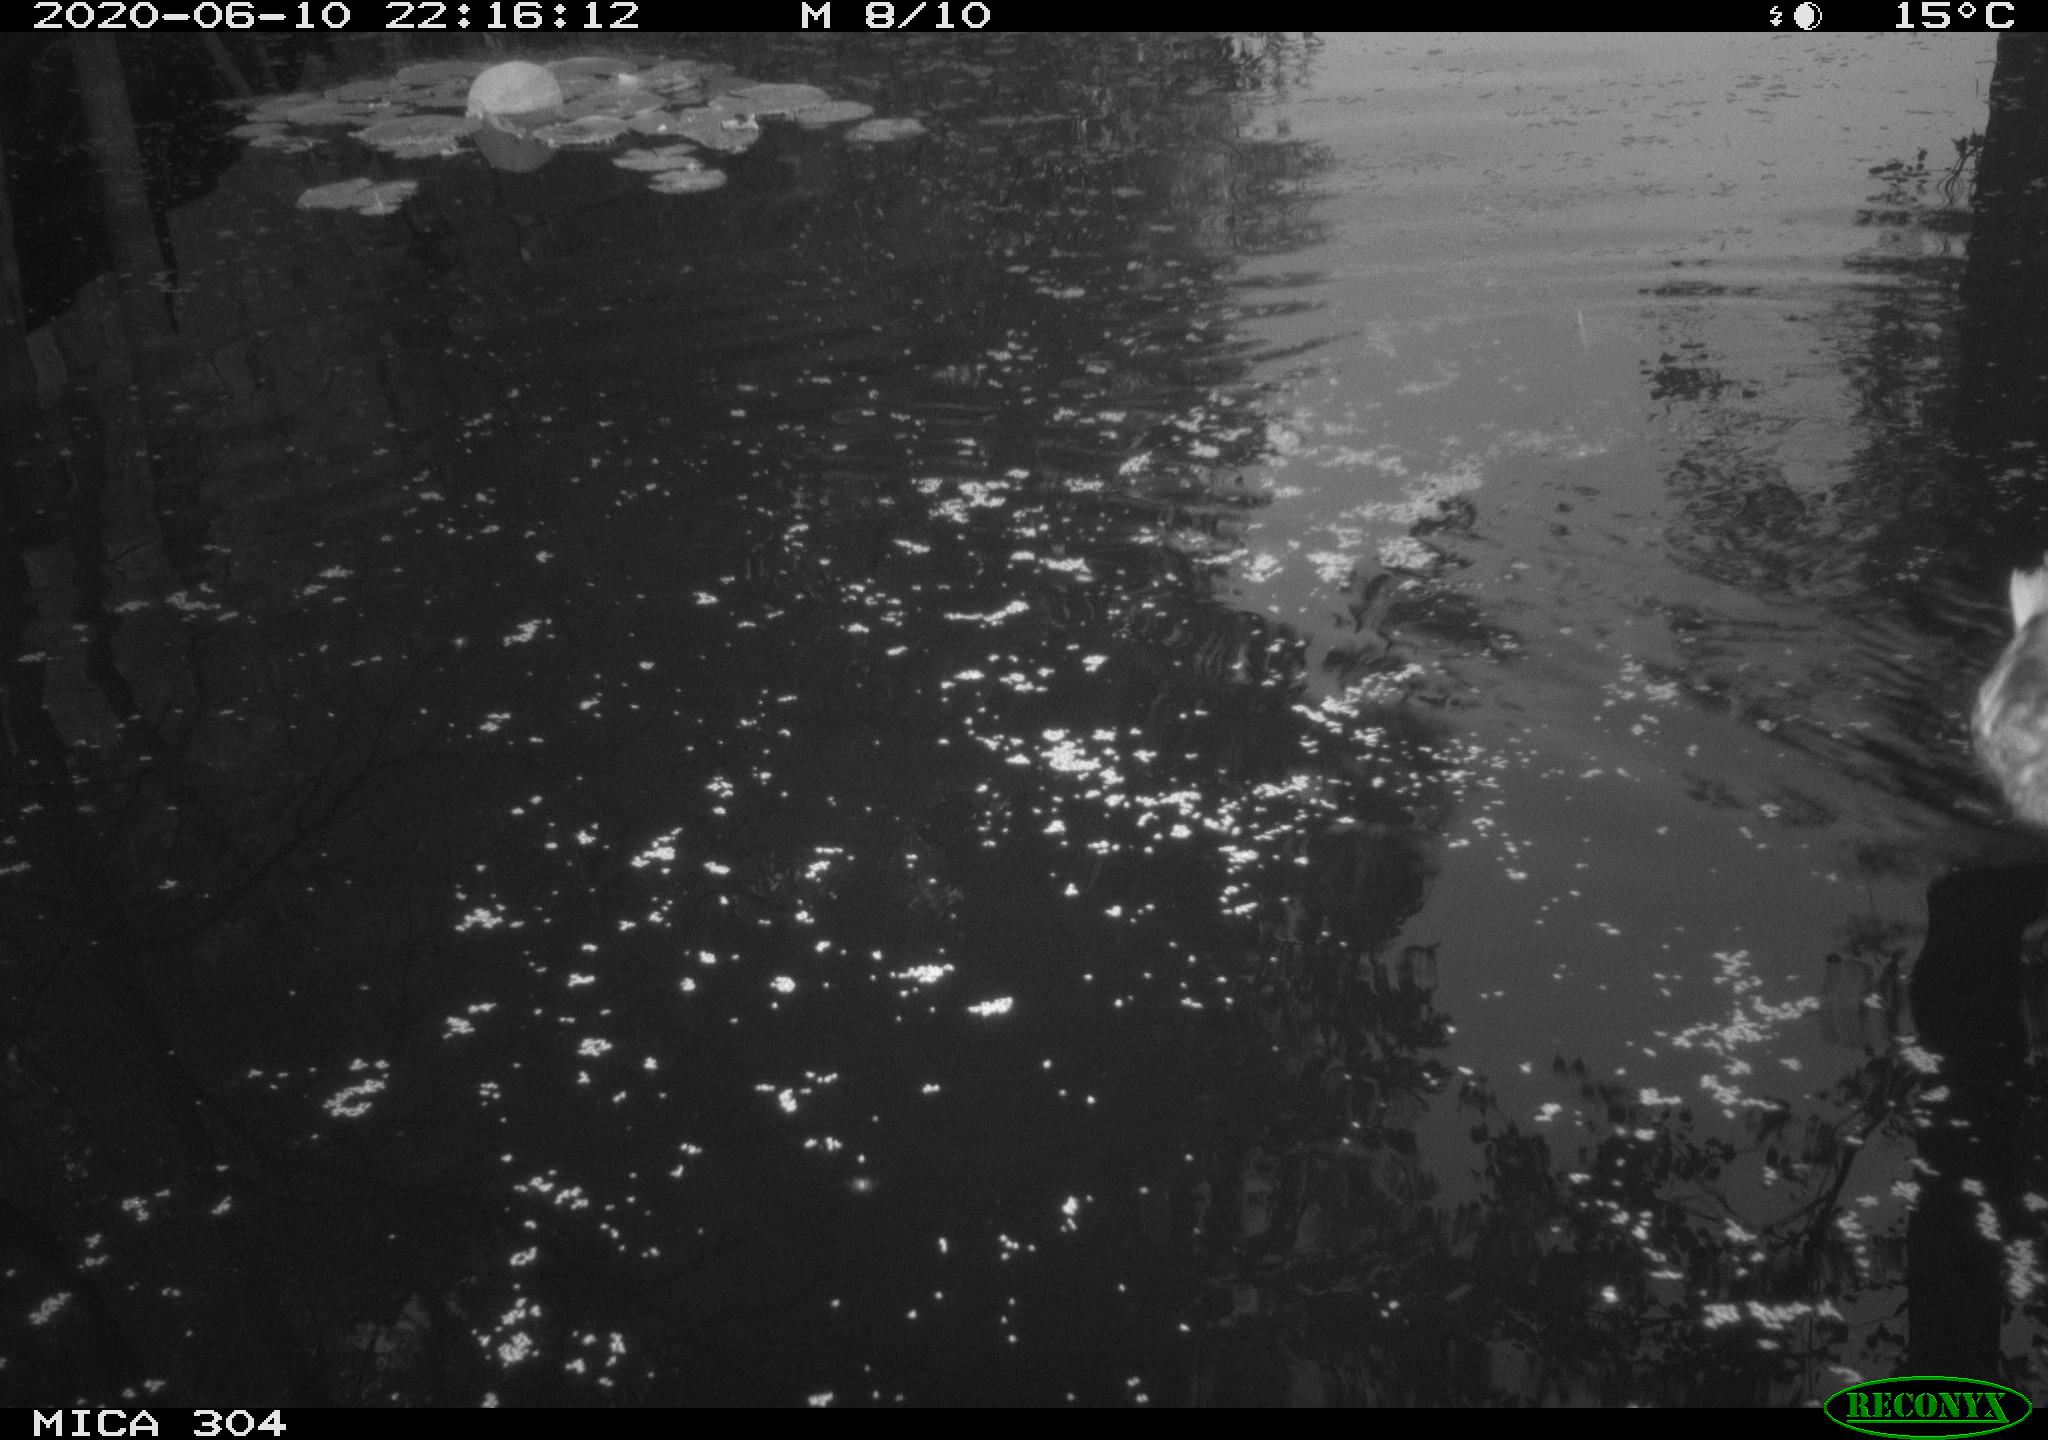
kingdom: Animalia
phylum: Chordata
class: Aves
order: Anseriformes
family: Anatidae
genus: Anas
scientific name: Anas platyrhynchos
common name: Mallard
